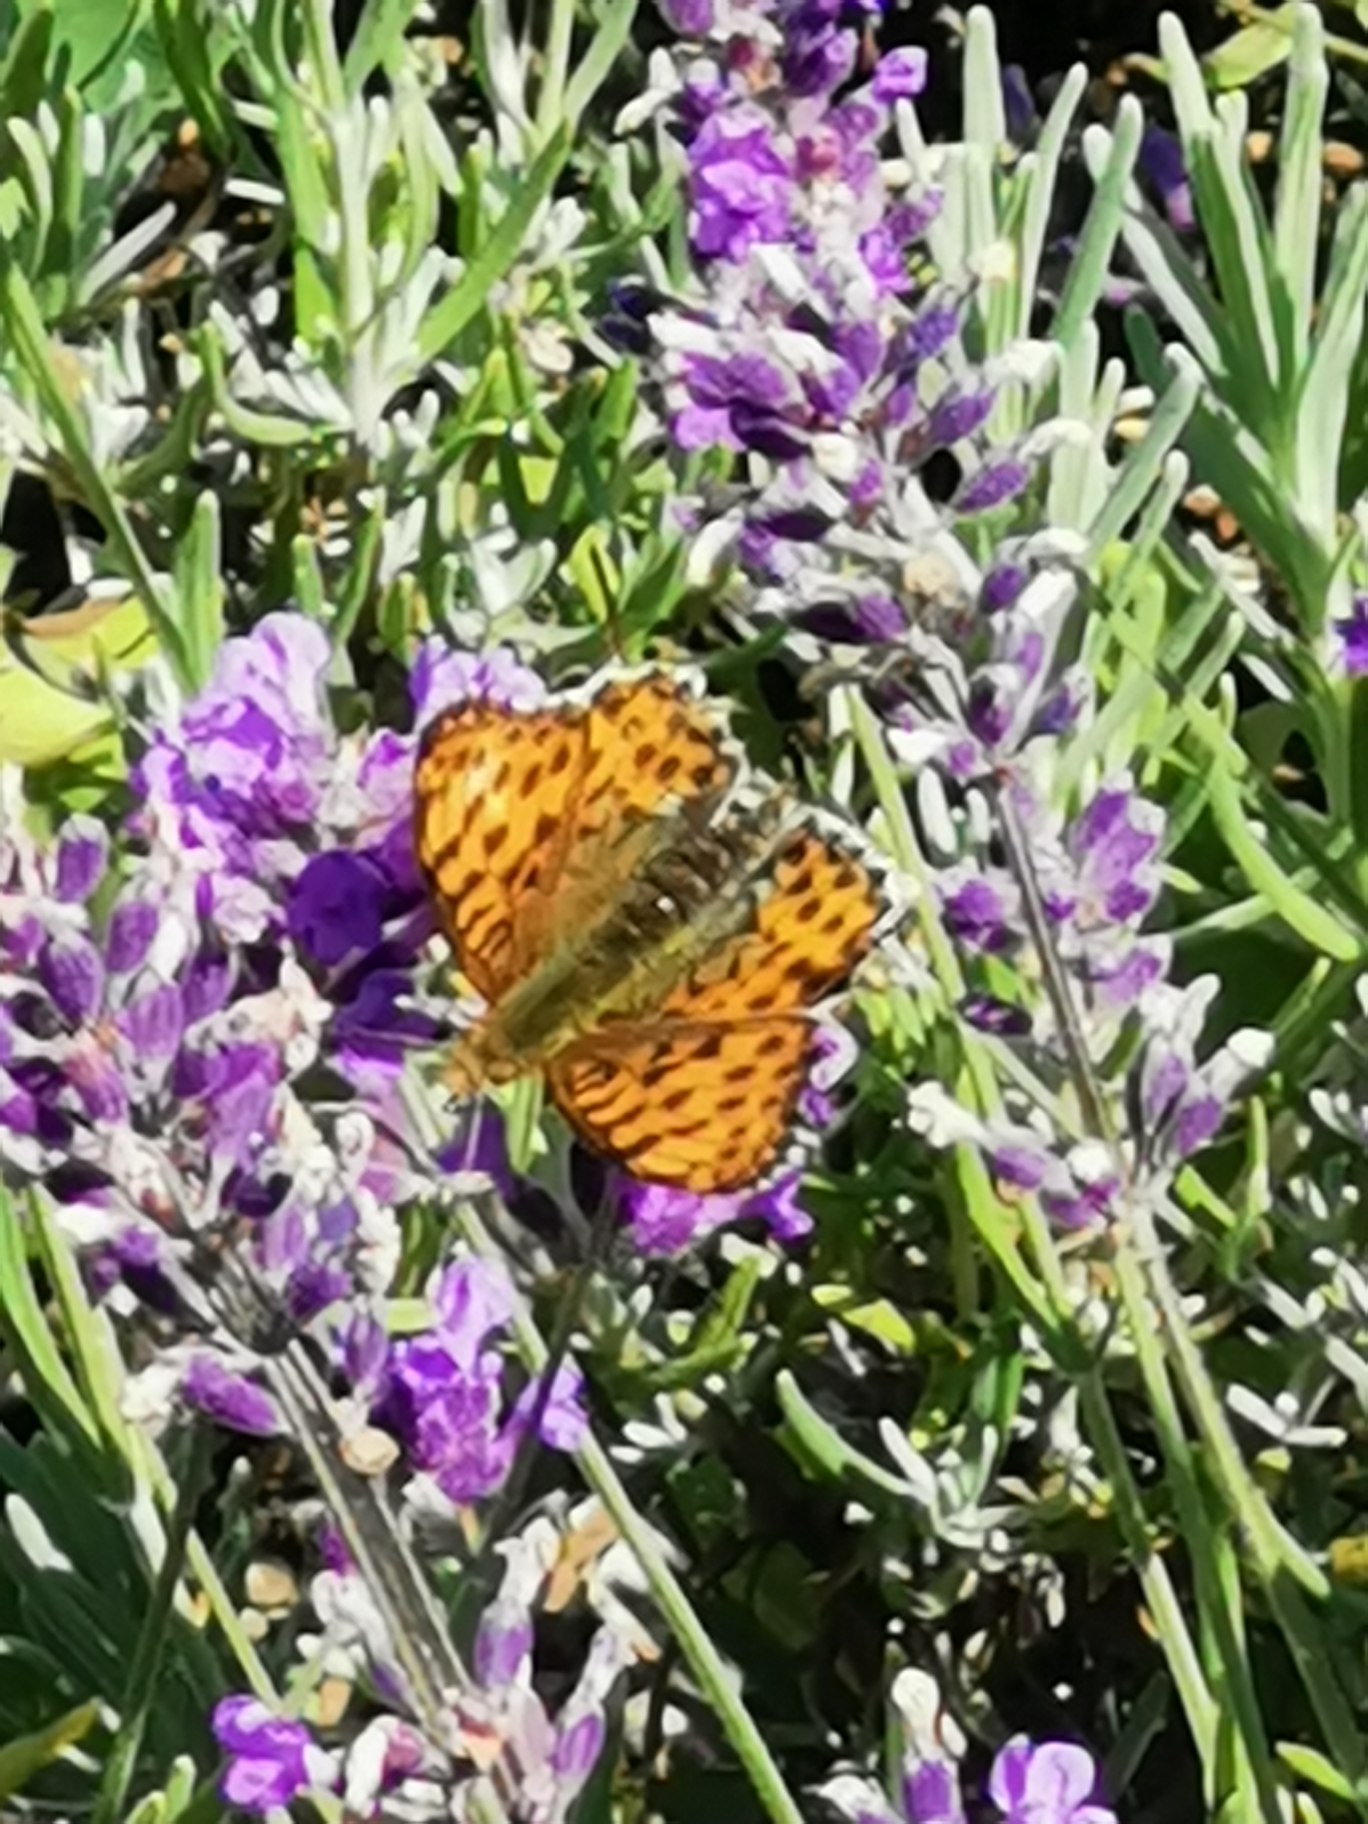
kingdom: Animalia
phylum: Arthropoda
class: Insecta
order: Lepidoptera
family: Nymphalidae
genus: Issoria
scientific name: Issoria lathonia
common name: Storplettet perlemorsommerfugl
